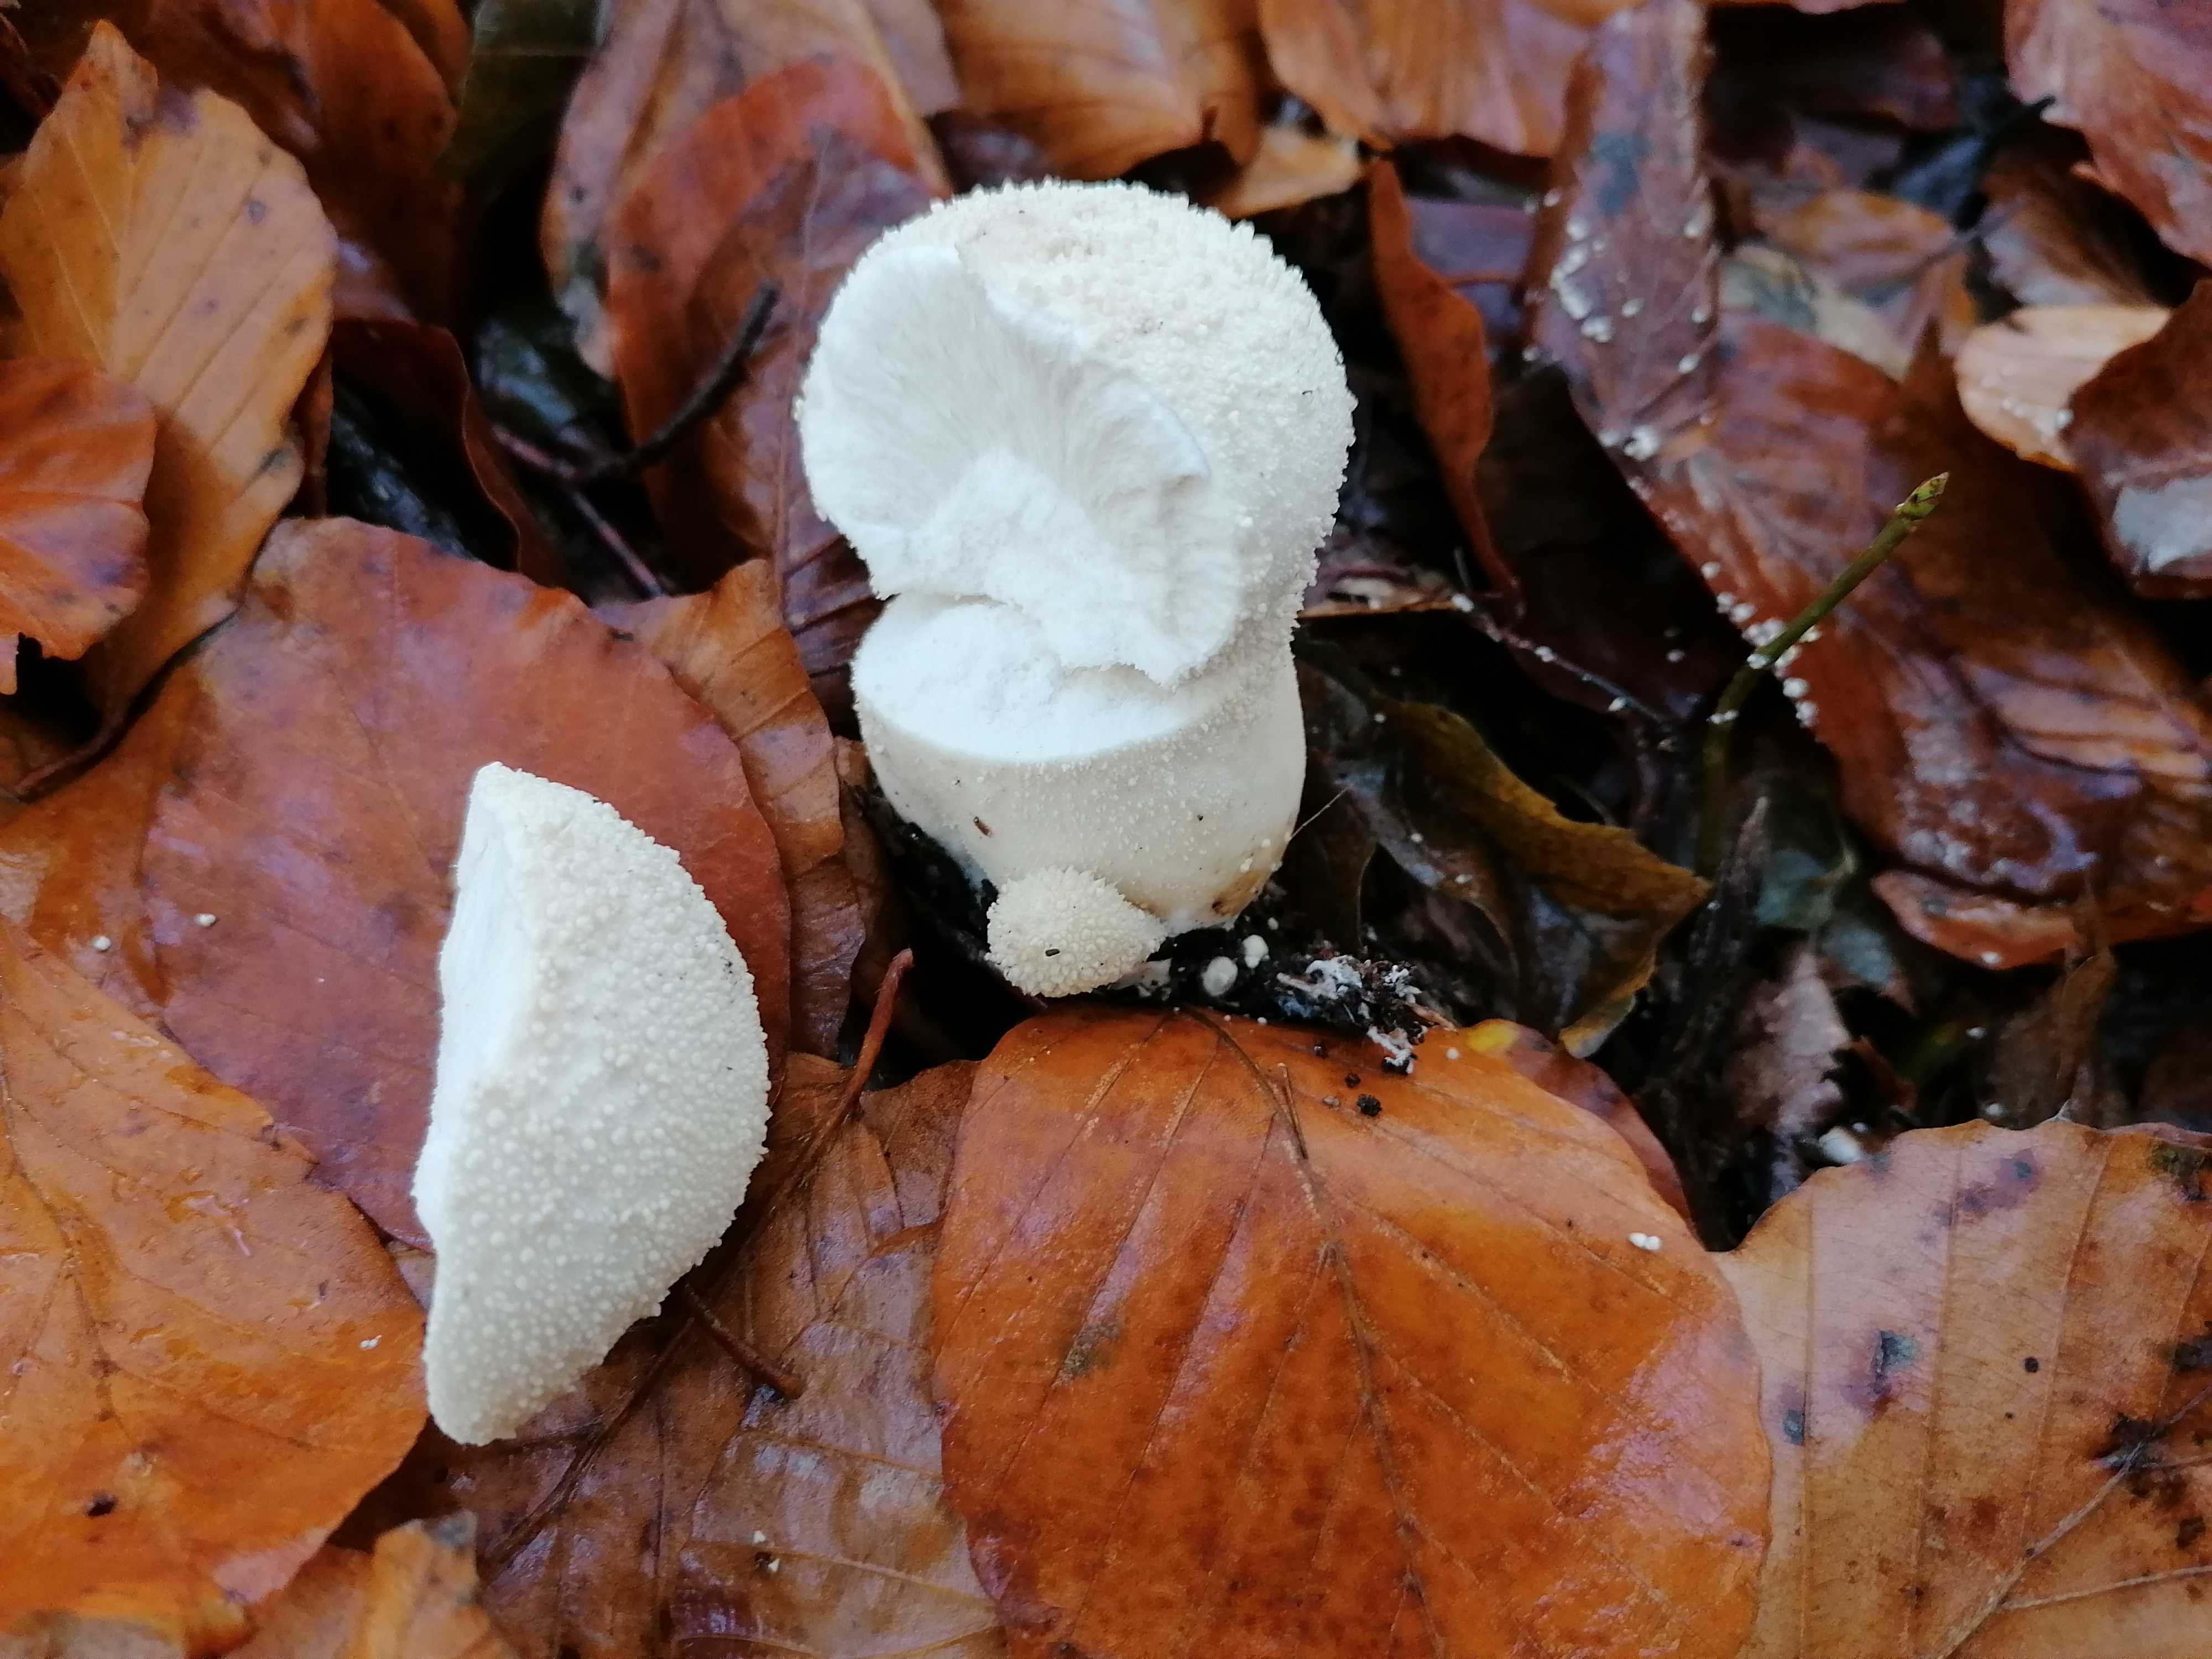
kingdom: Fungi
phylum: Basidiomycota
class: Agaricomycetes
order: Agaricales
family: Lycoperdaceae
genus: Lycoperdon
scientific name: Lycoperdon perlatum
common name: krystal-støvbold
